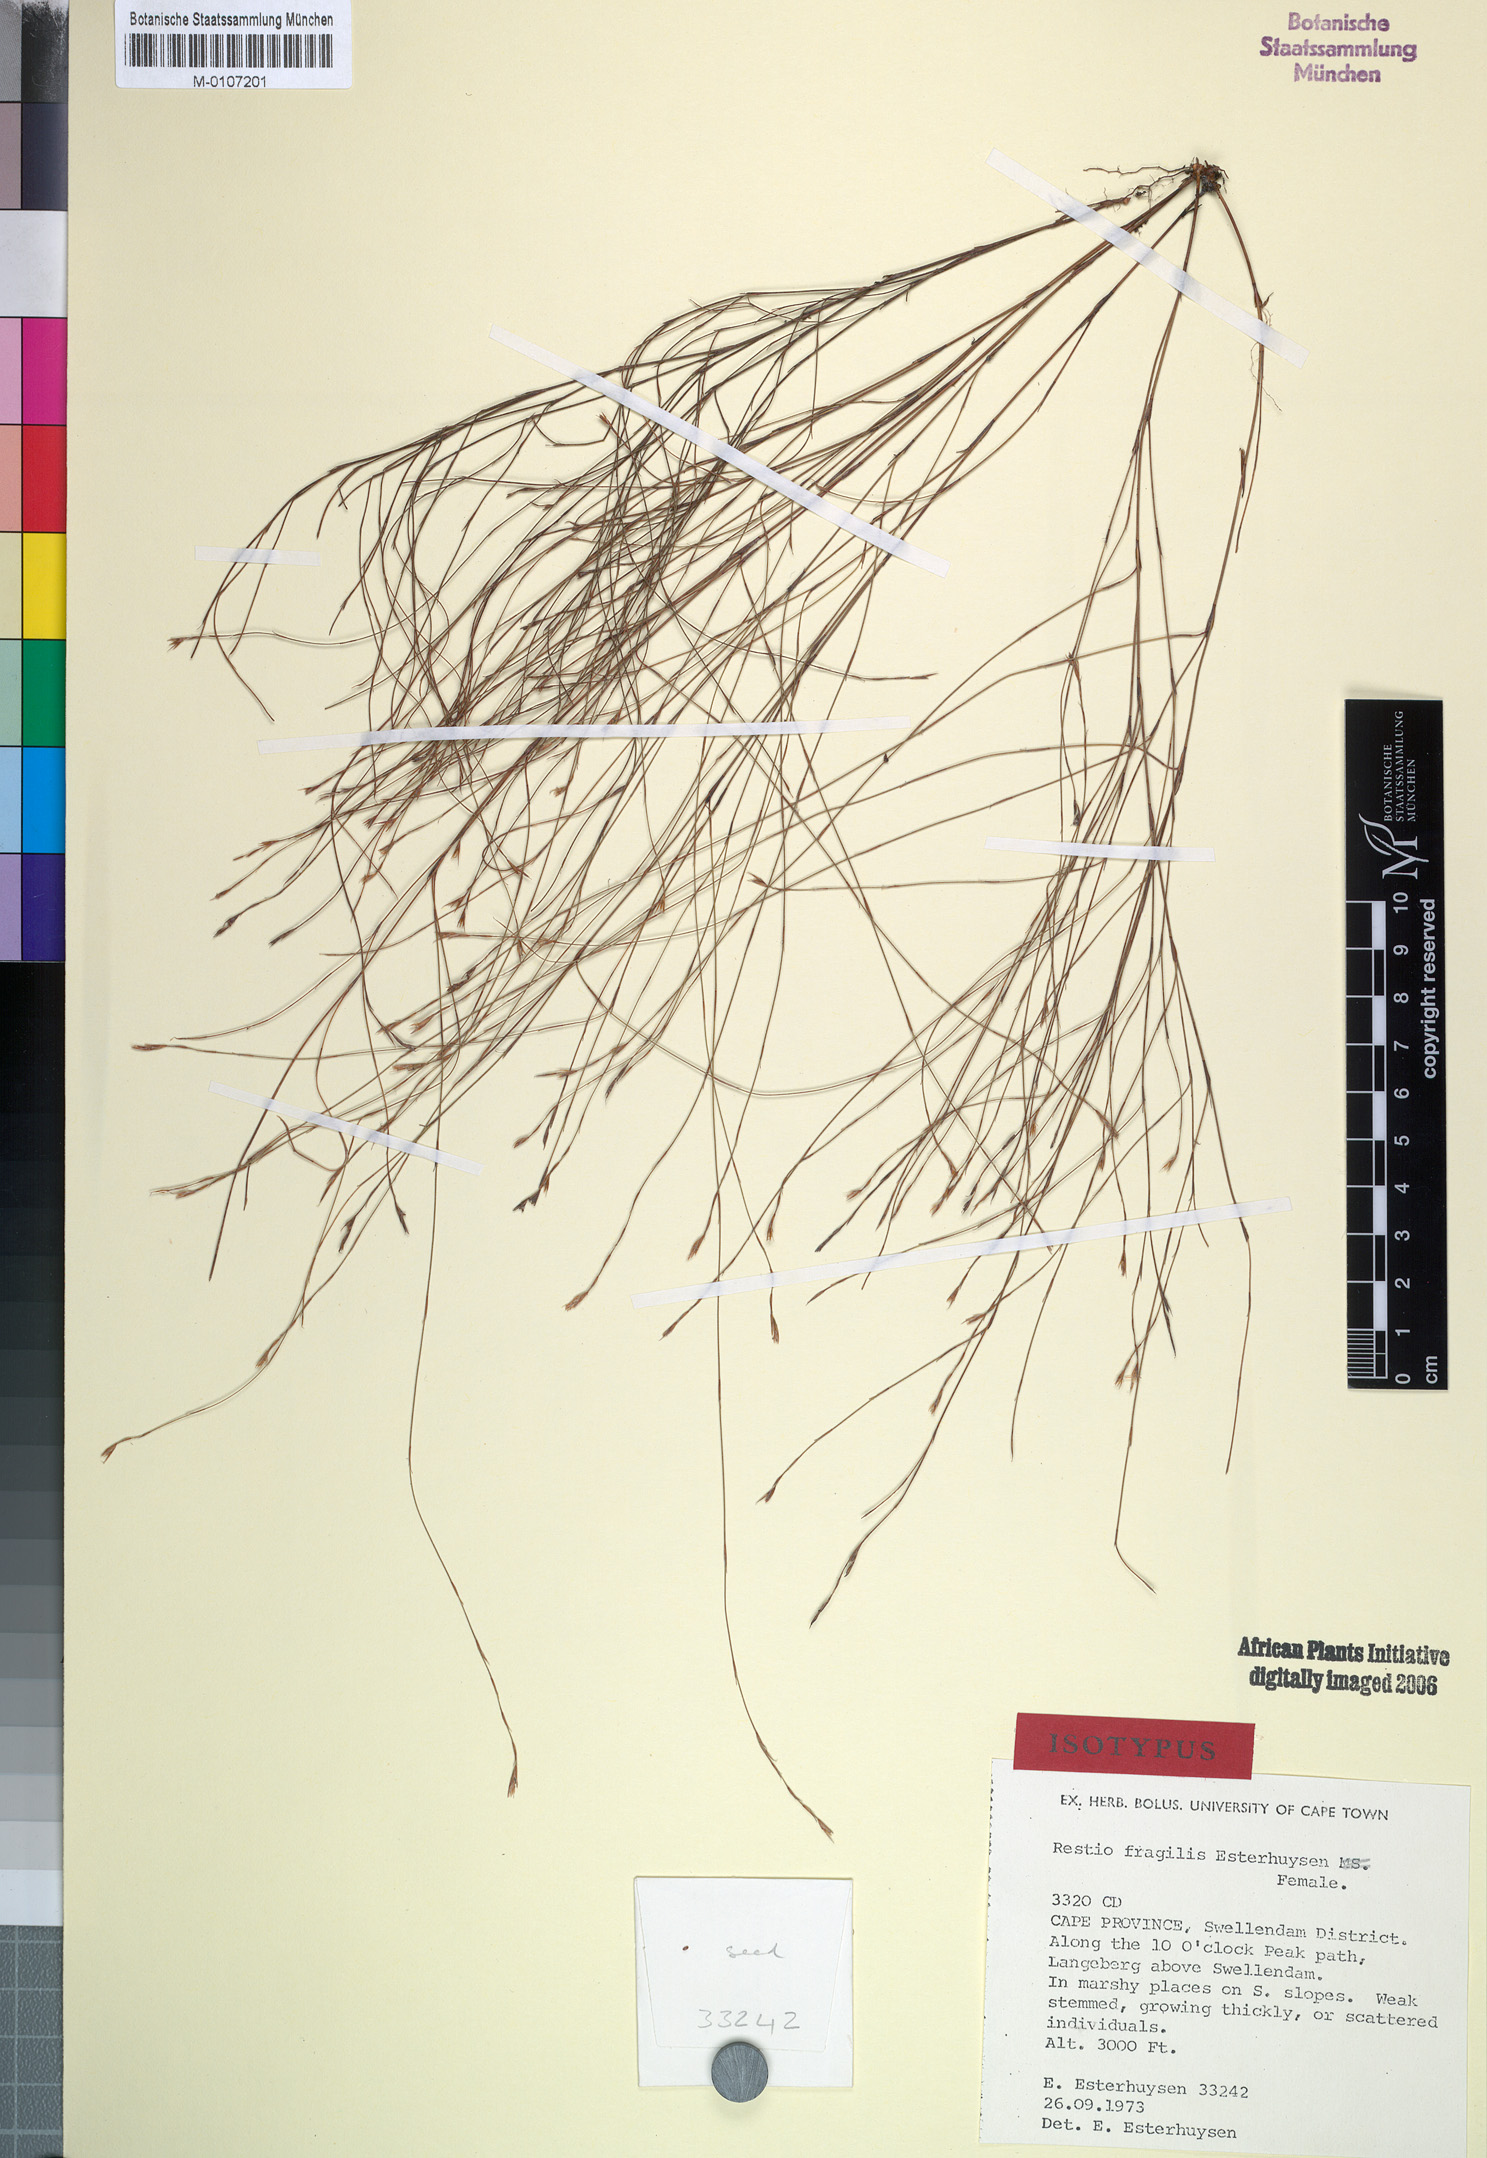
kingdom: Plantae
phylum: Tracheophyta
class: Liliopsida
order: Poales
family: Restionaceae
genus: Restio
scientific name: Restio fragilis
